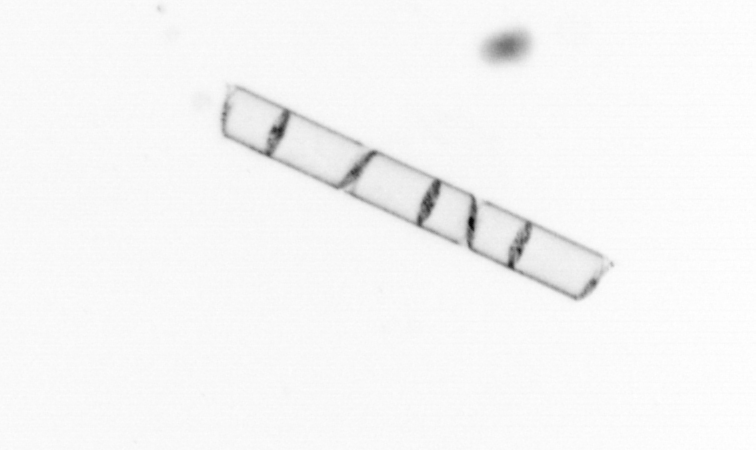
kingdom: Chromista
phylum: Ochrophyta
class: Bacillariophyceae
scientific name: Bacillariophyceae
